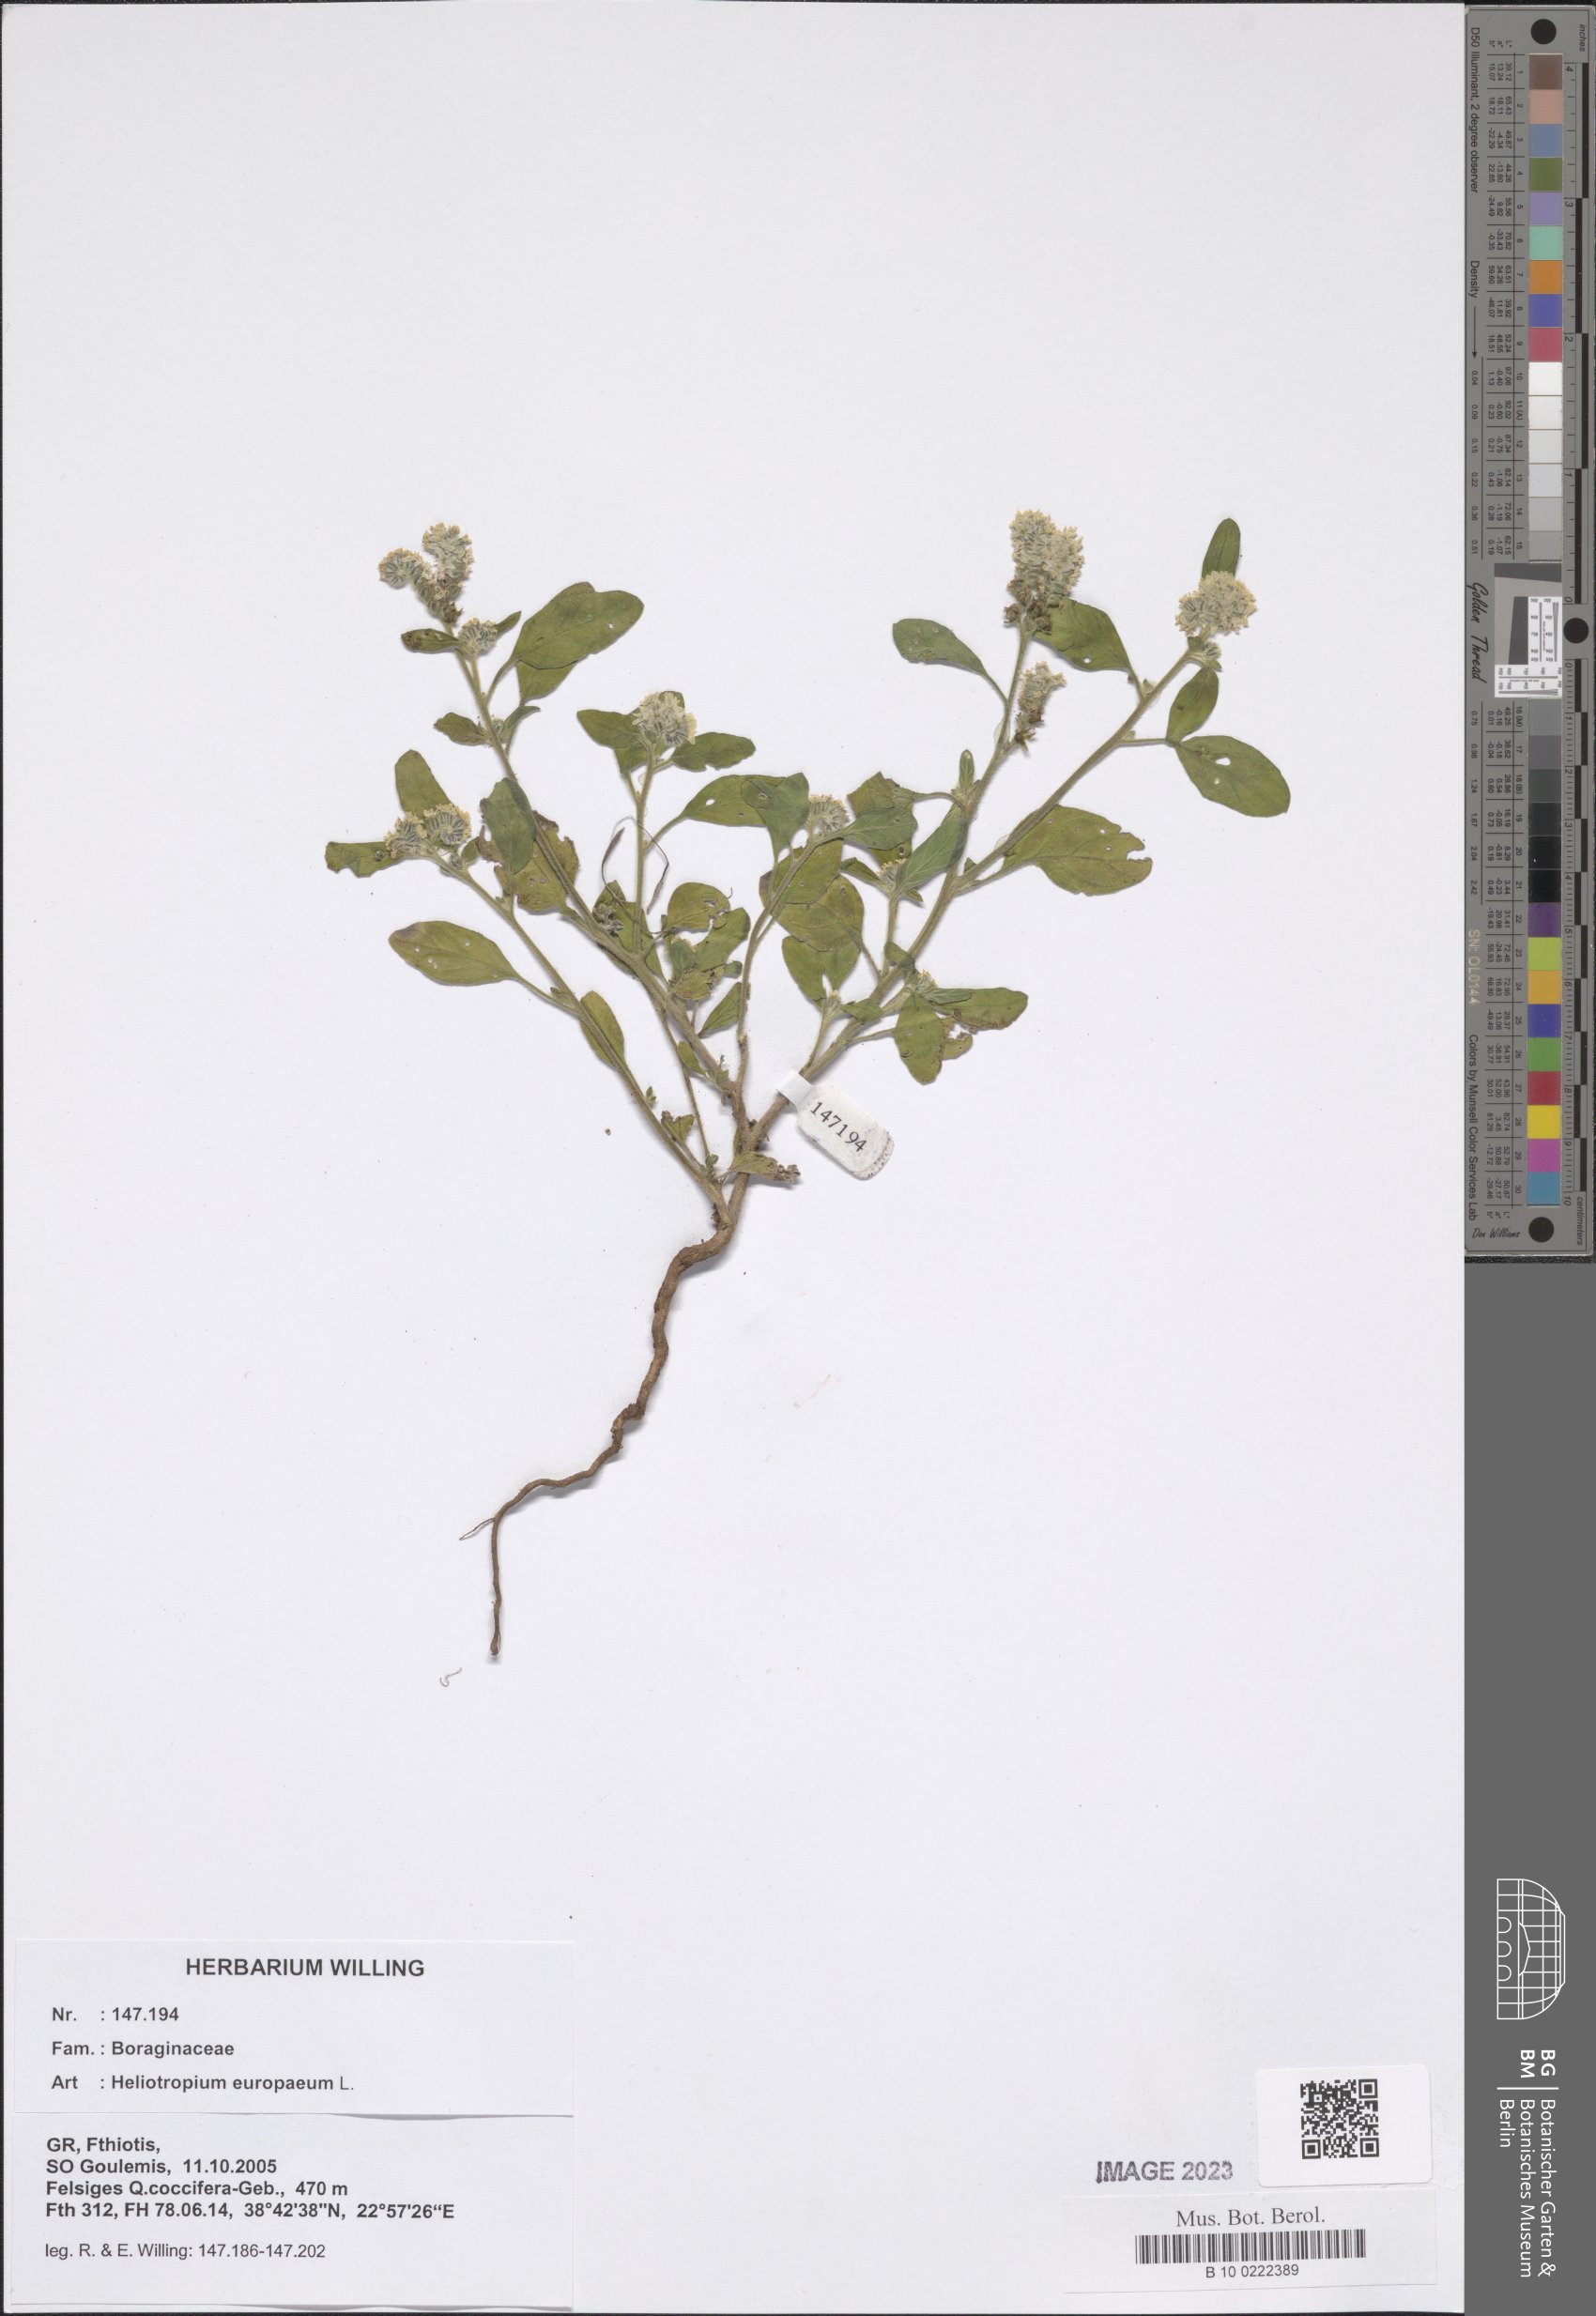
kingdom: Plantae
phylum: Tracheophyta
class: Magnoliopsida
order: Boraginales
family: Heliotropiaceae
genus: Heliotropium
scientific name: Heliotropium europaeum
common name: European heliotrope
